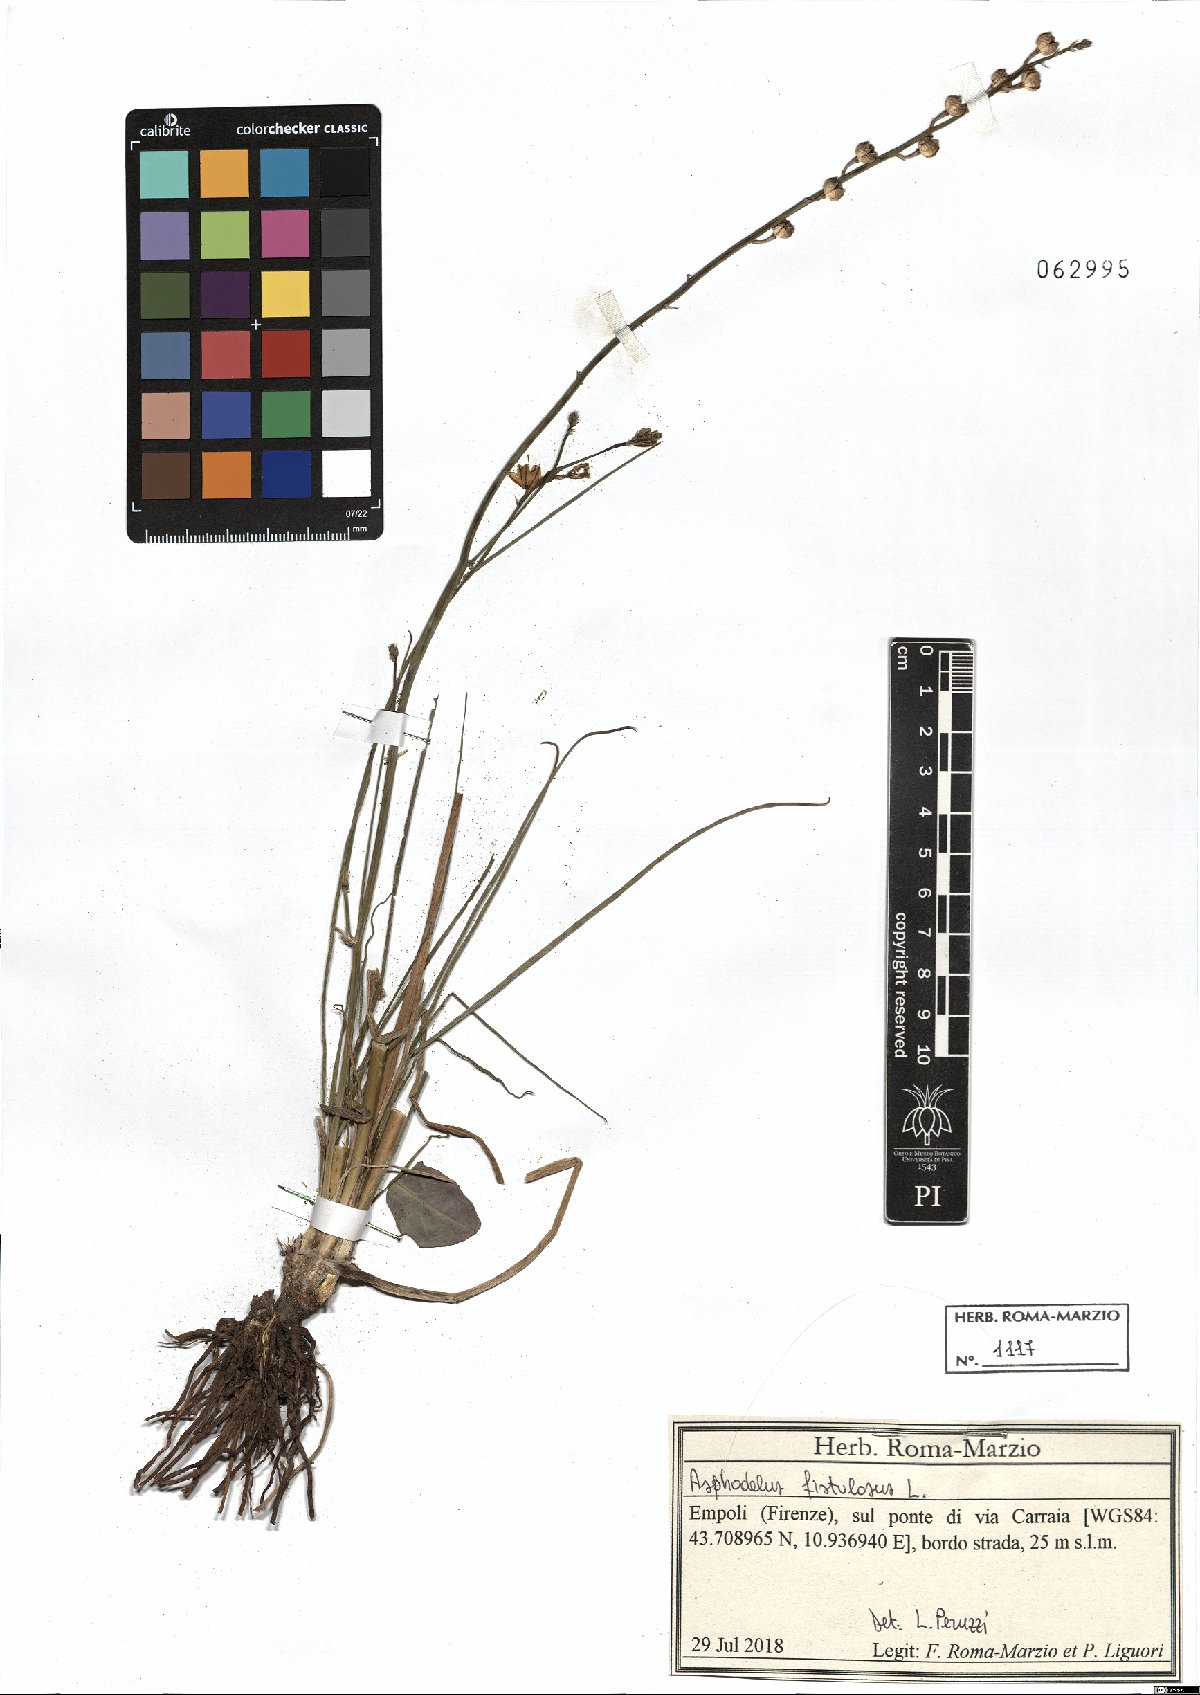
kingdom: Plantae
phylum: Tracheophyta
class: Liliopsida
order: Asparagales
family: Asphodelaceae
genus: Asphodelus
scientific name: Asphodelus fistulosus
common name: Onionweed
